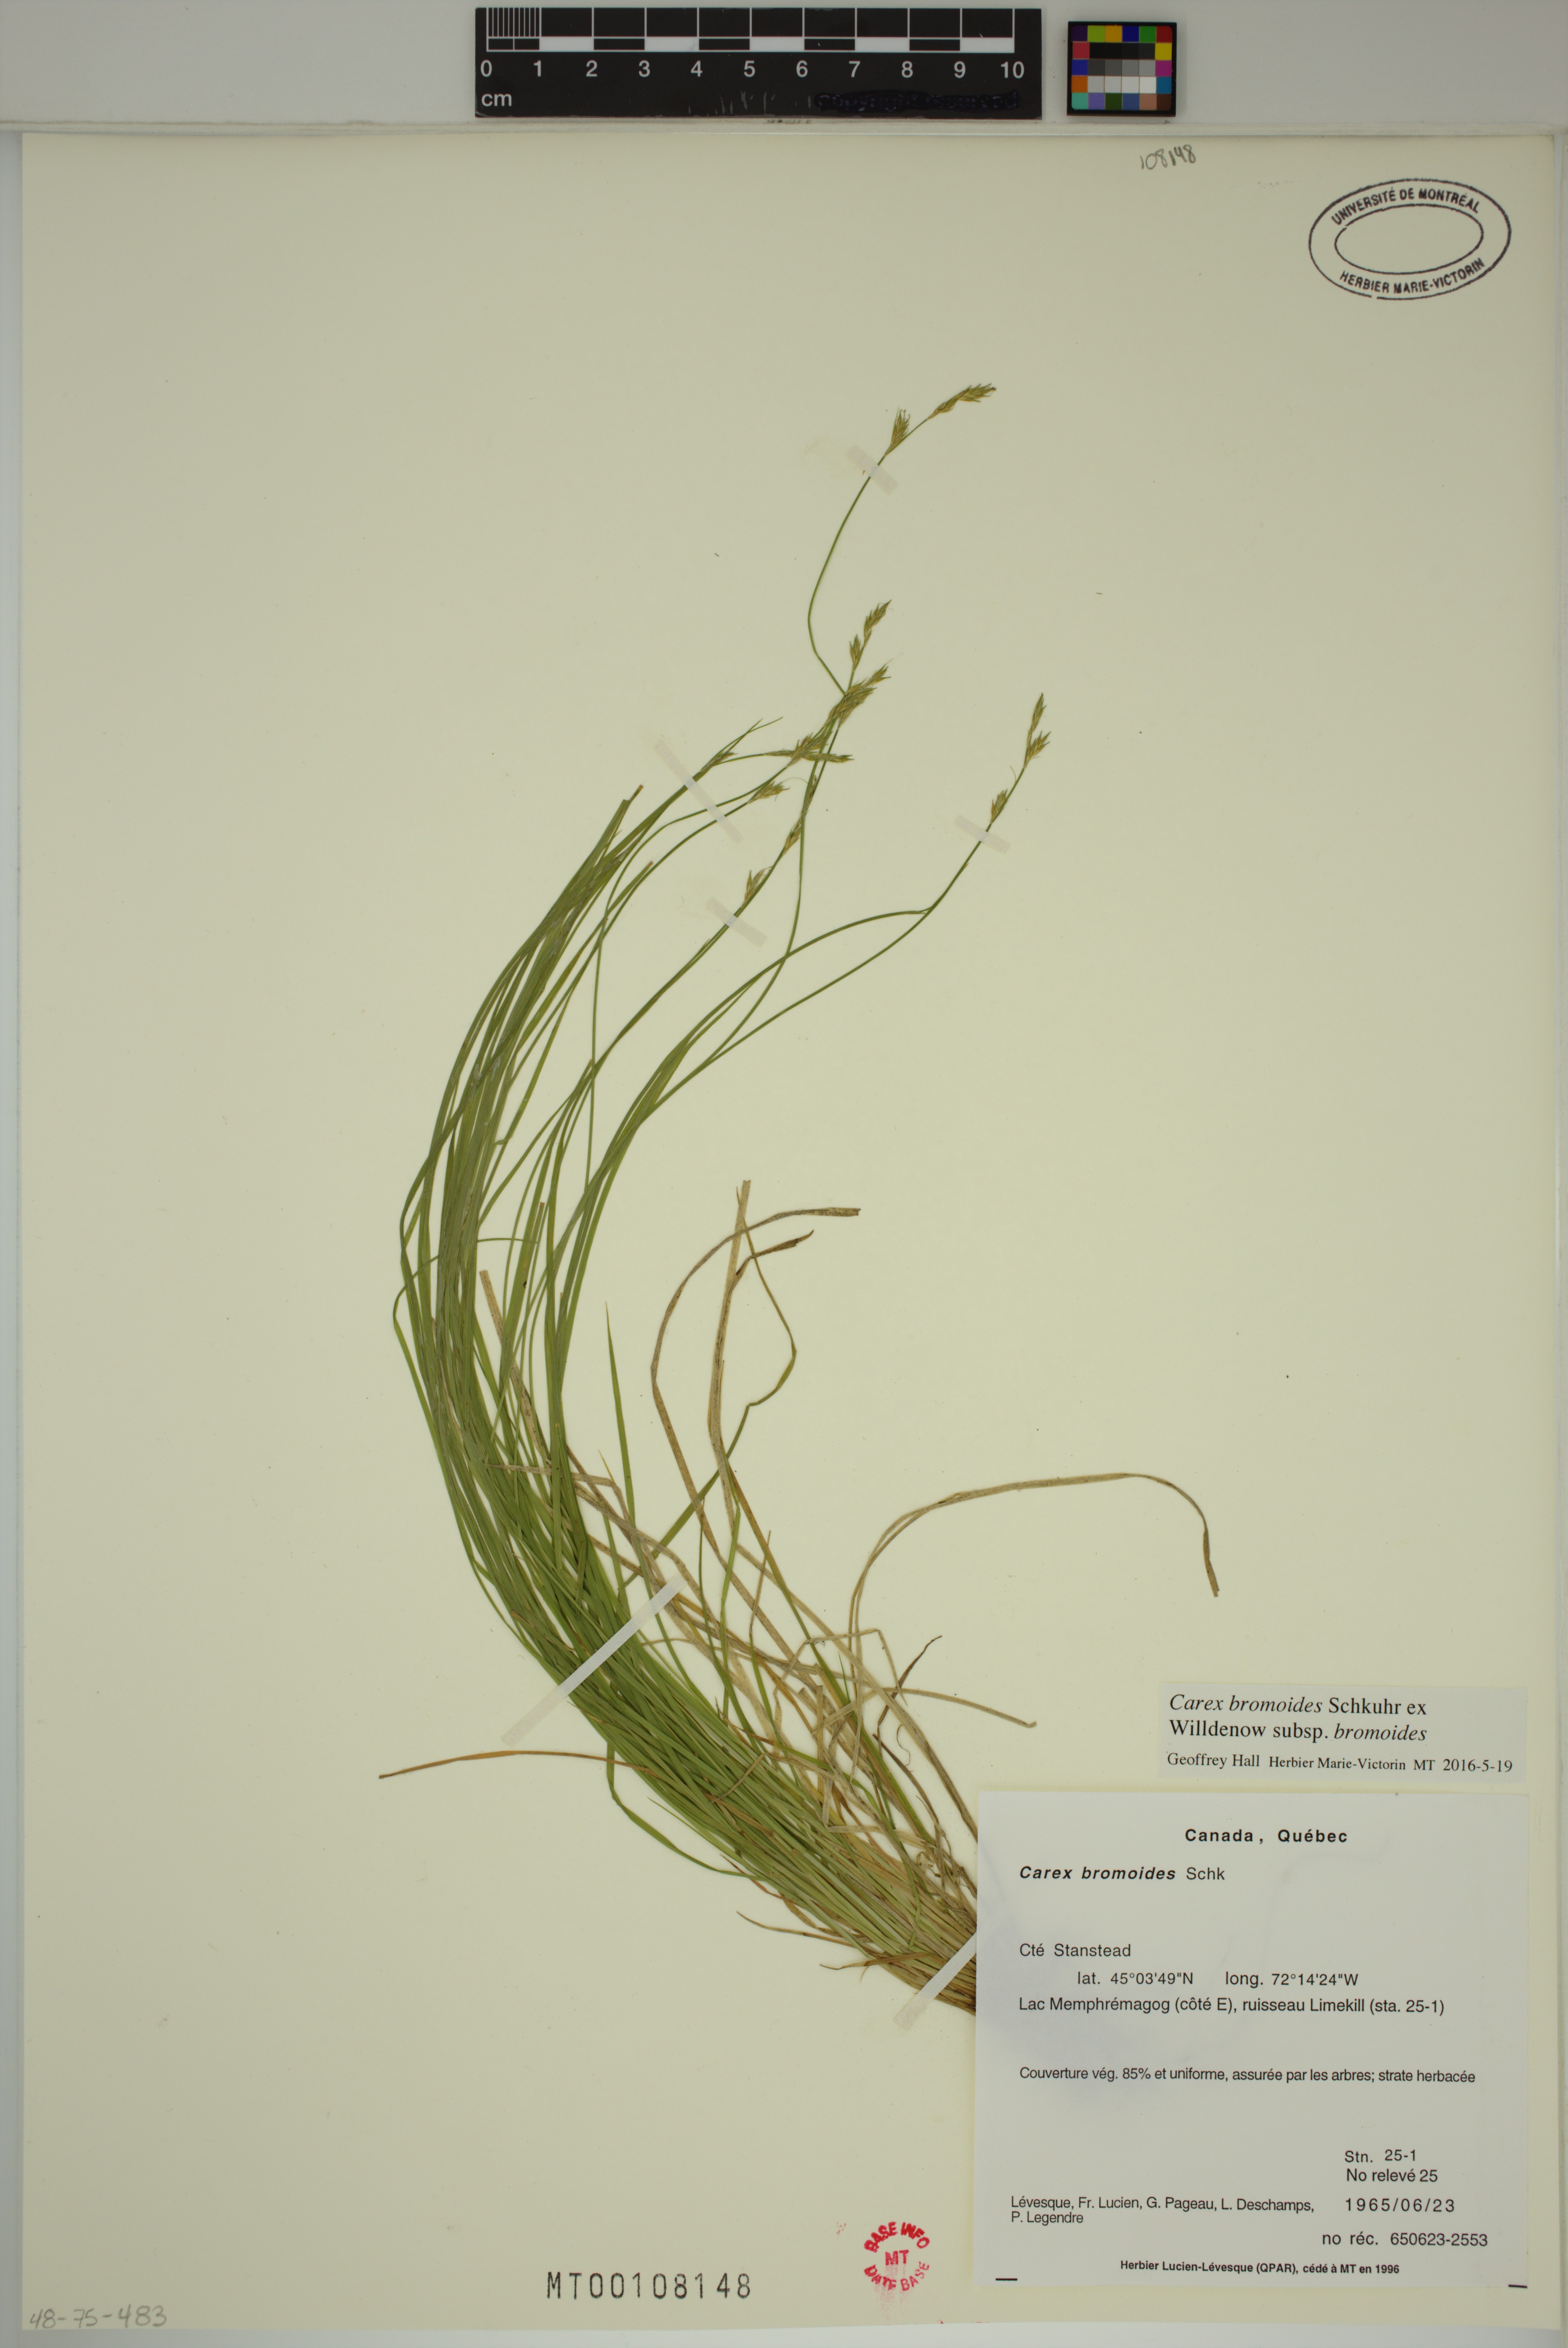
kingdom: Plantae
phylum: Tracheophyta
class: Liliopsida
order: Poales
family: Cyperaceae
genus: Carex
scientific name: Carex bromoides
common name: Brome hummock sedge
